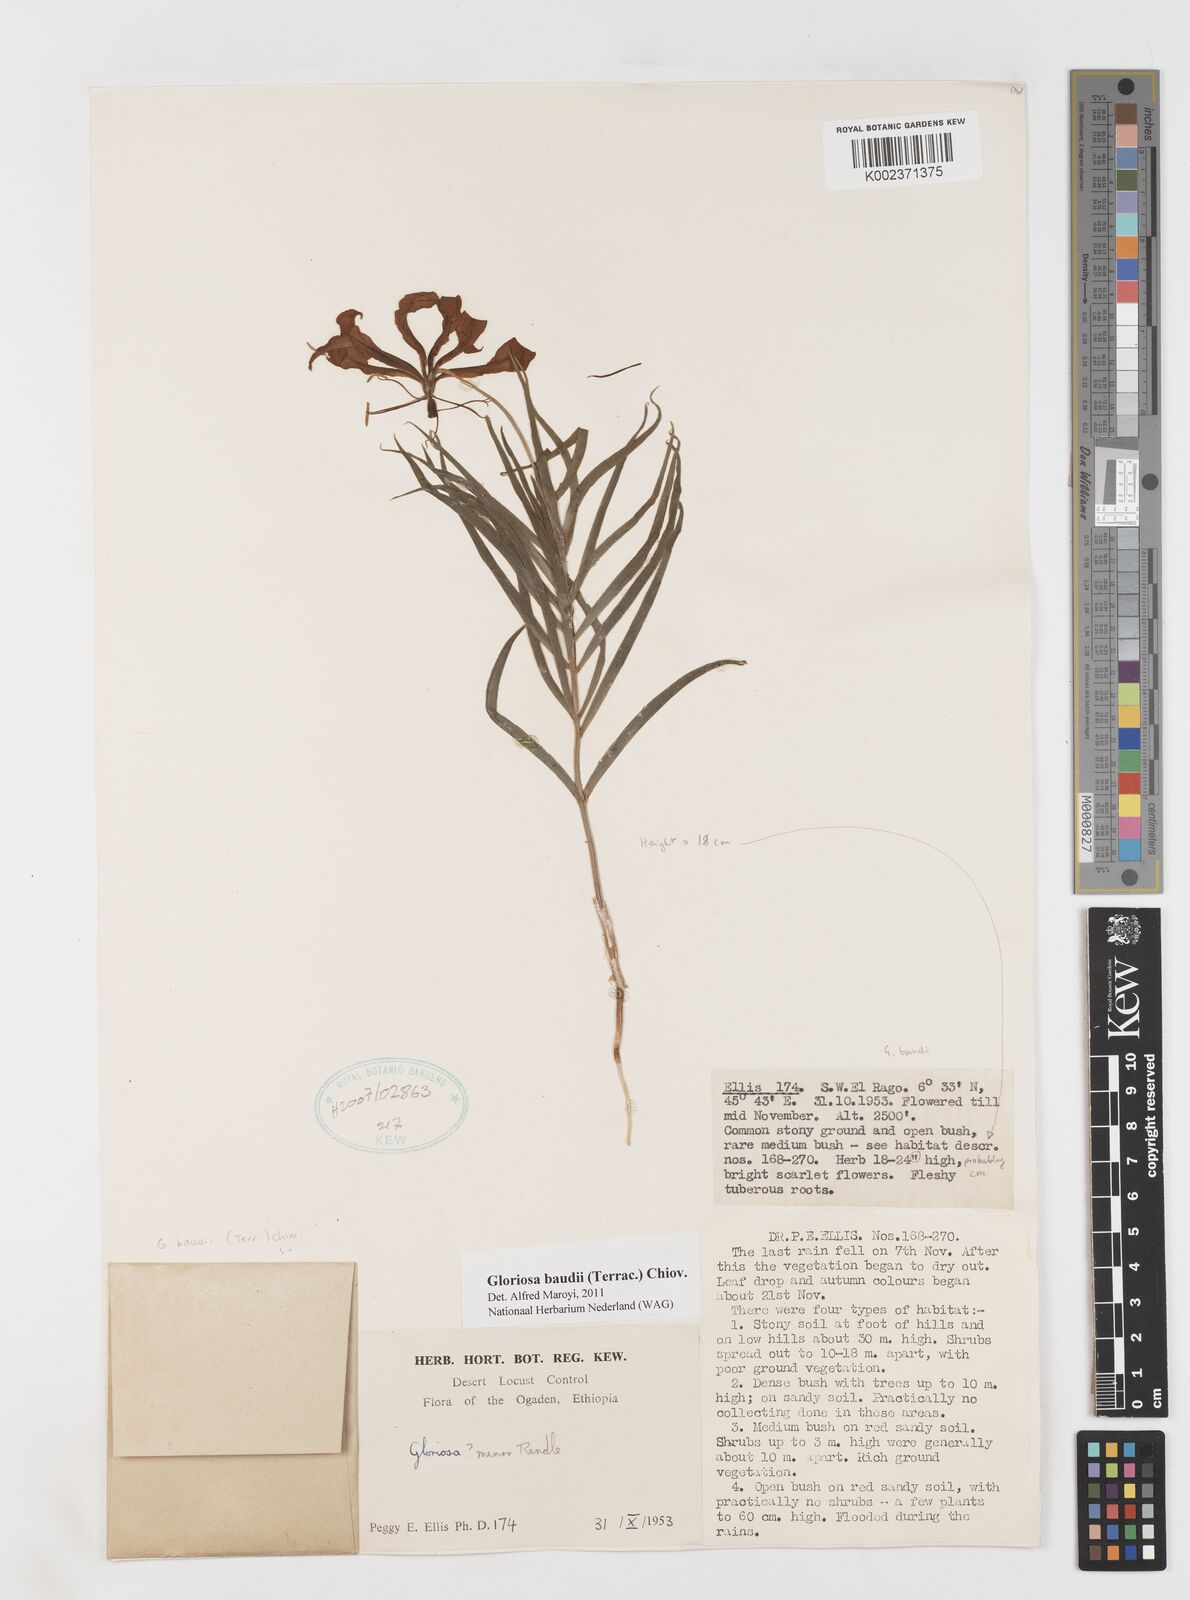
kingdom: Plantae
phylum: Tracheophyta
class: Liliopsida
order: Liliales
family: Colchicaceae
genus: Gloriosa
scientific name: Gloriosa baudii
